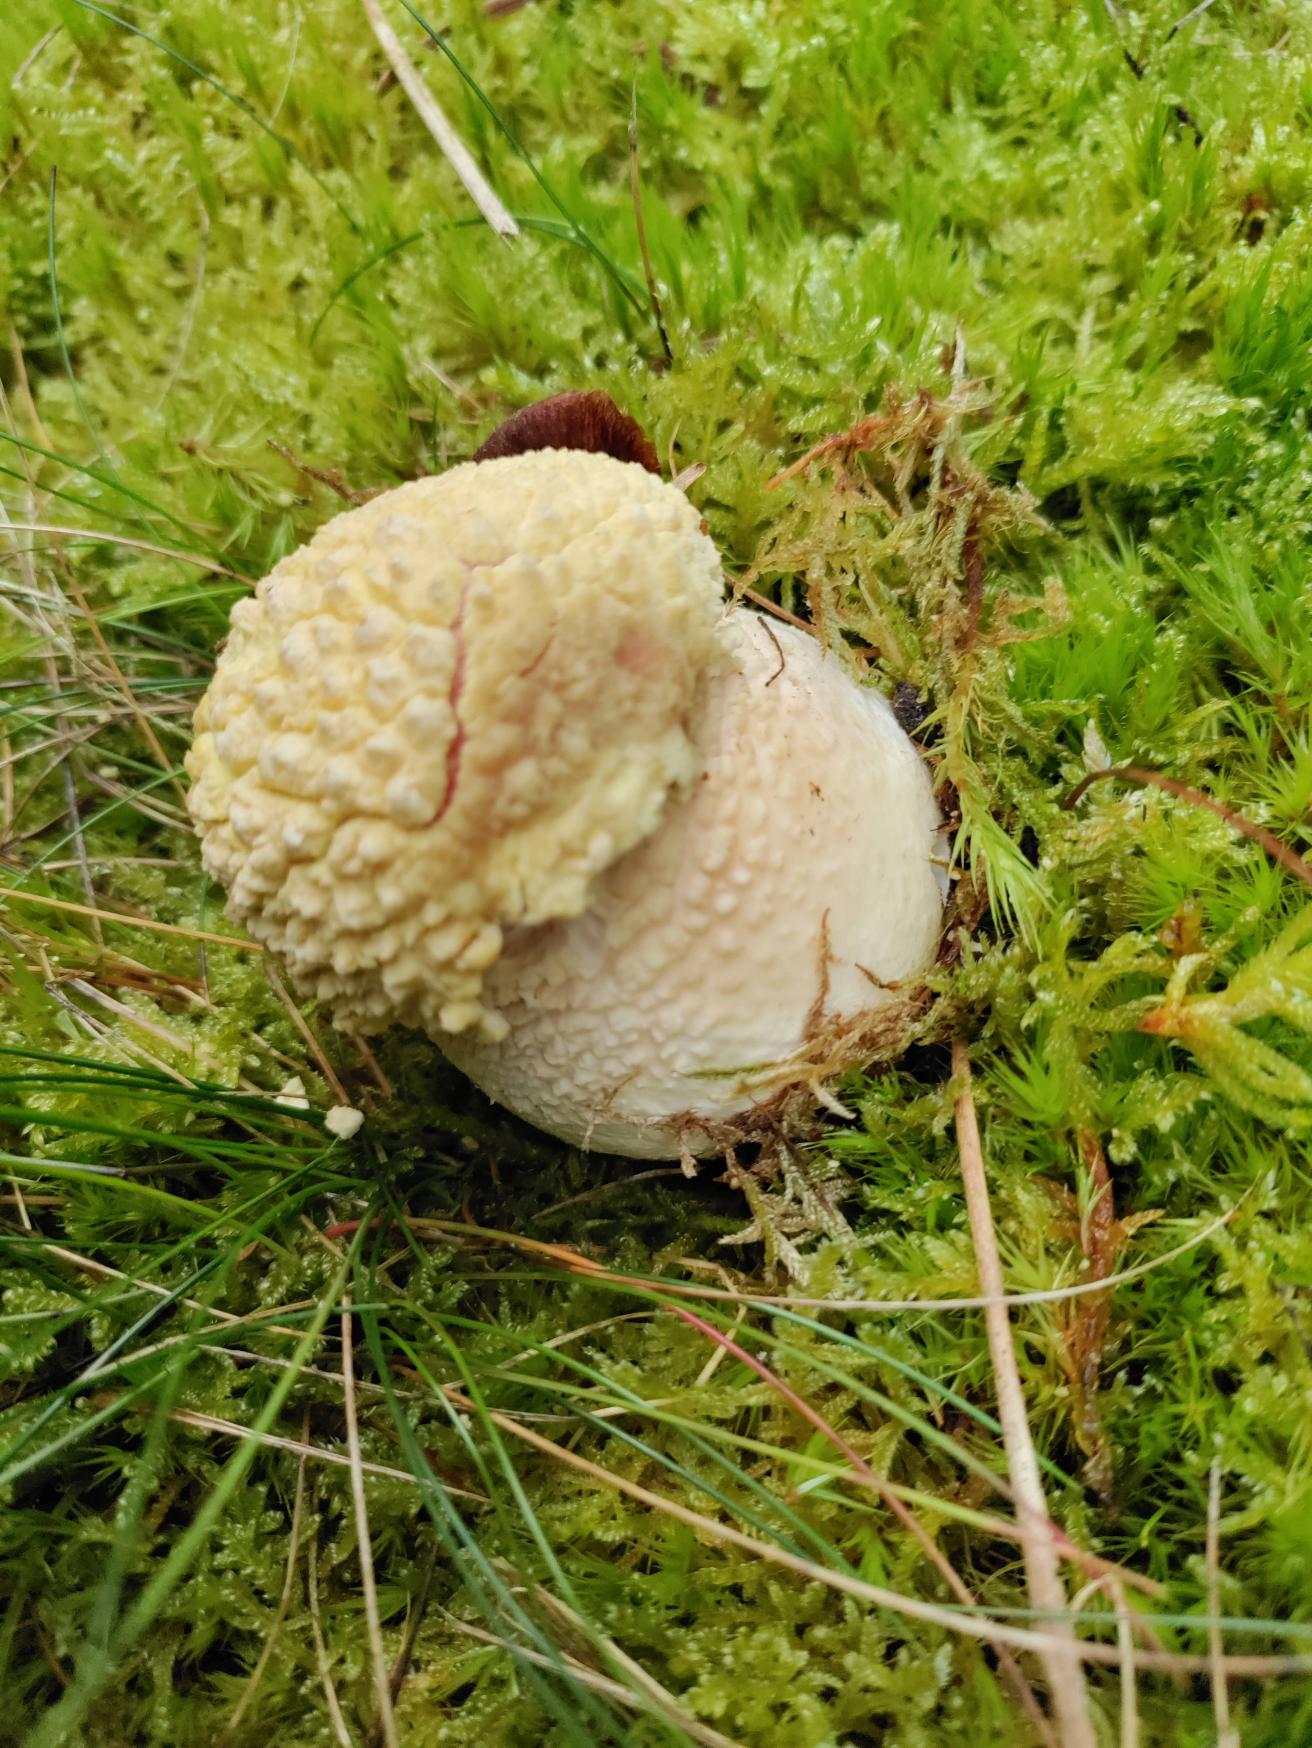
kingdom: Fungi
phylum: Basidiomycota
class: Agaricomycetes
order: Agaricales
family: Amanitaceae
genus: Amanita
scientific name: Amanita muscaria
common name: Rød fluesvamp
